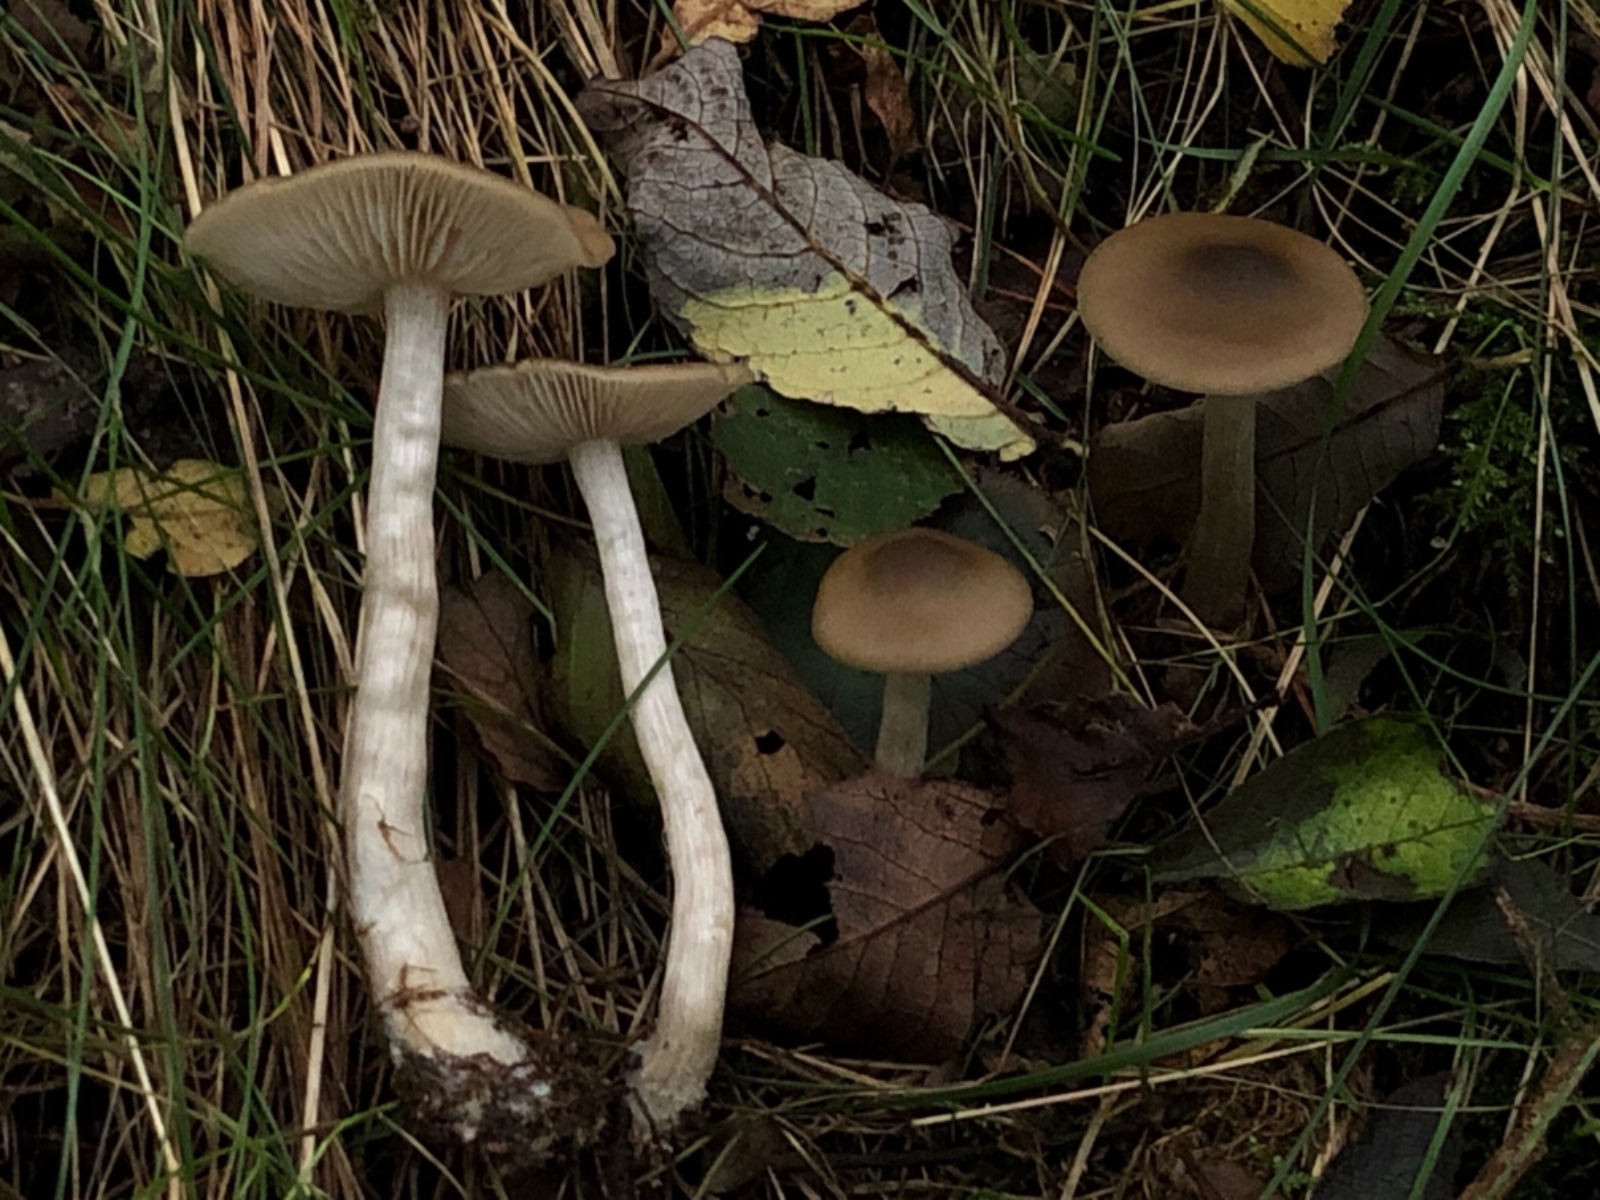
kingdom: Fungi
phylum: Basidiomycota
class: Agaricomycetes
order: Agaricales
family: Entolomataceae
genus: Entoloma
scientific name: Entoloma
